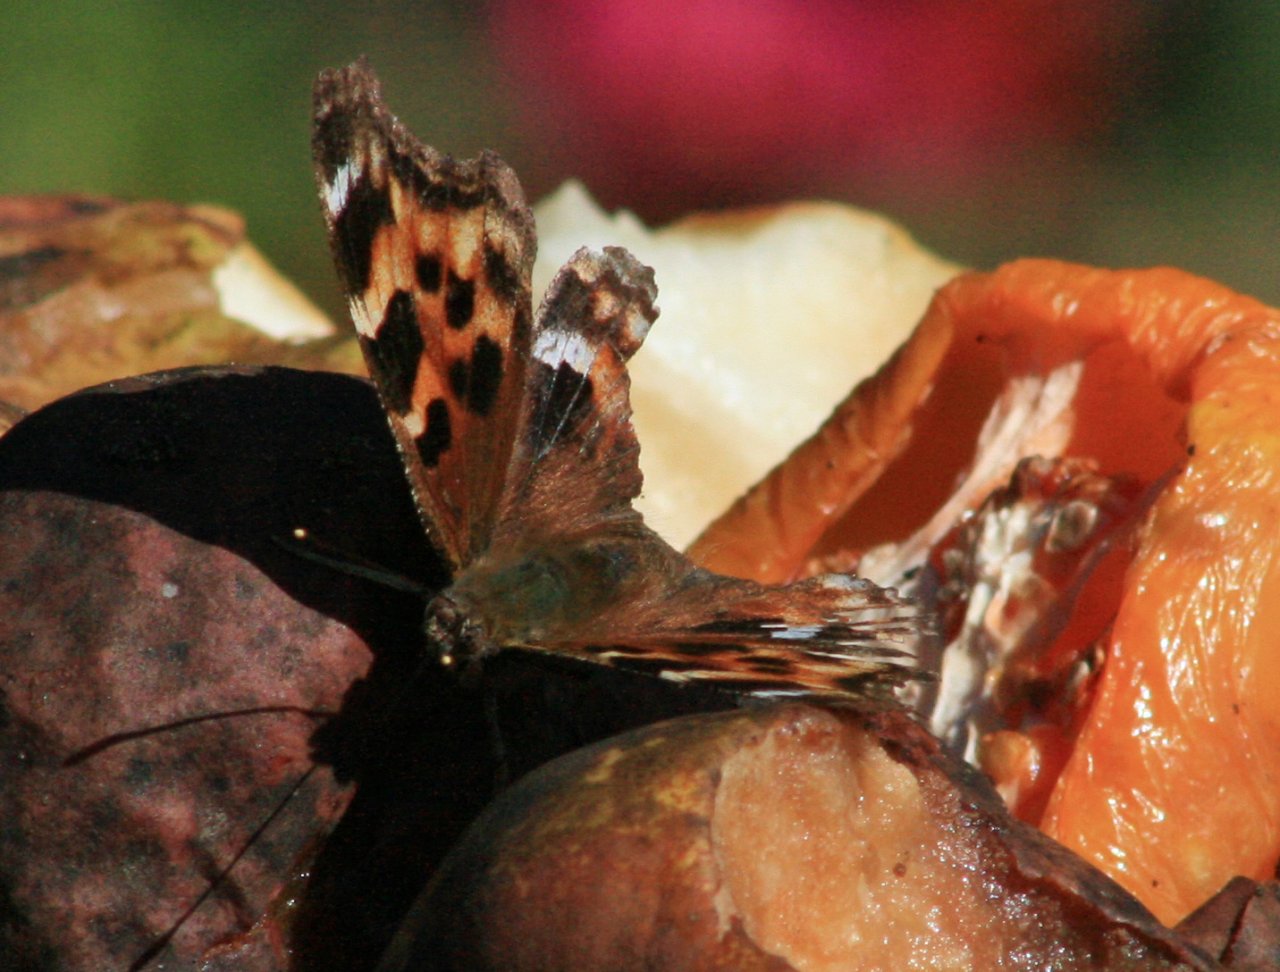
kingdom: Animalia
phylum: Arthropoda
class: Insecta
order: Lepidoptera
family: Nymphalidae
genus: Polygonia
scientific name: Polygonia vaualbum
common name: Compton Tortoiseshell
